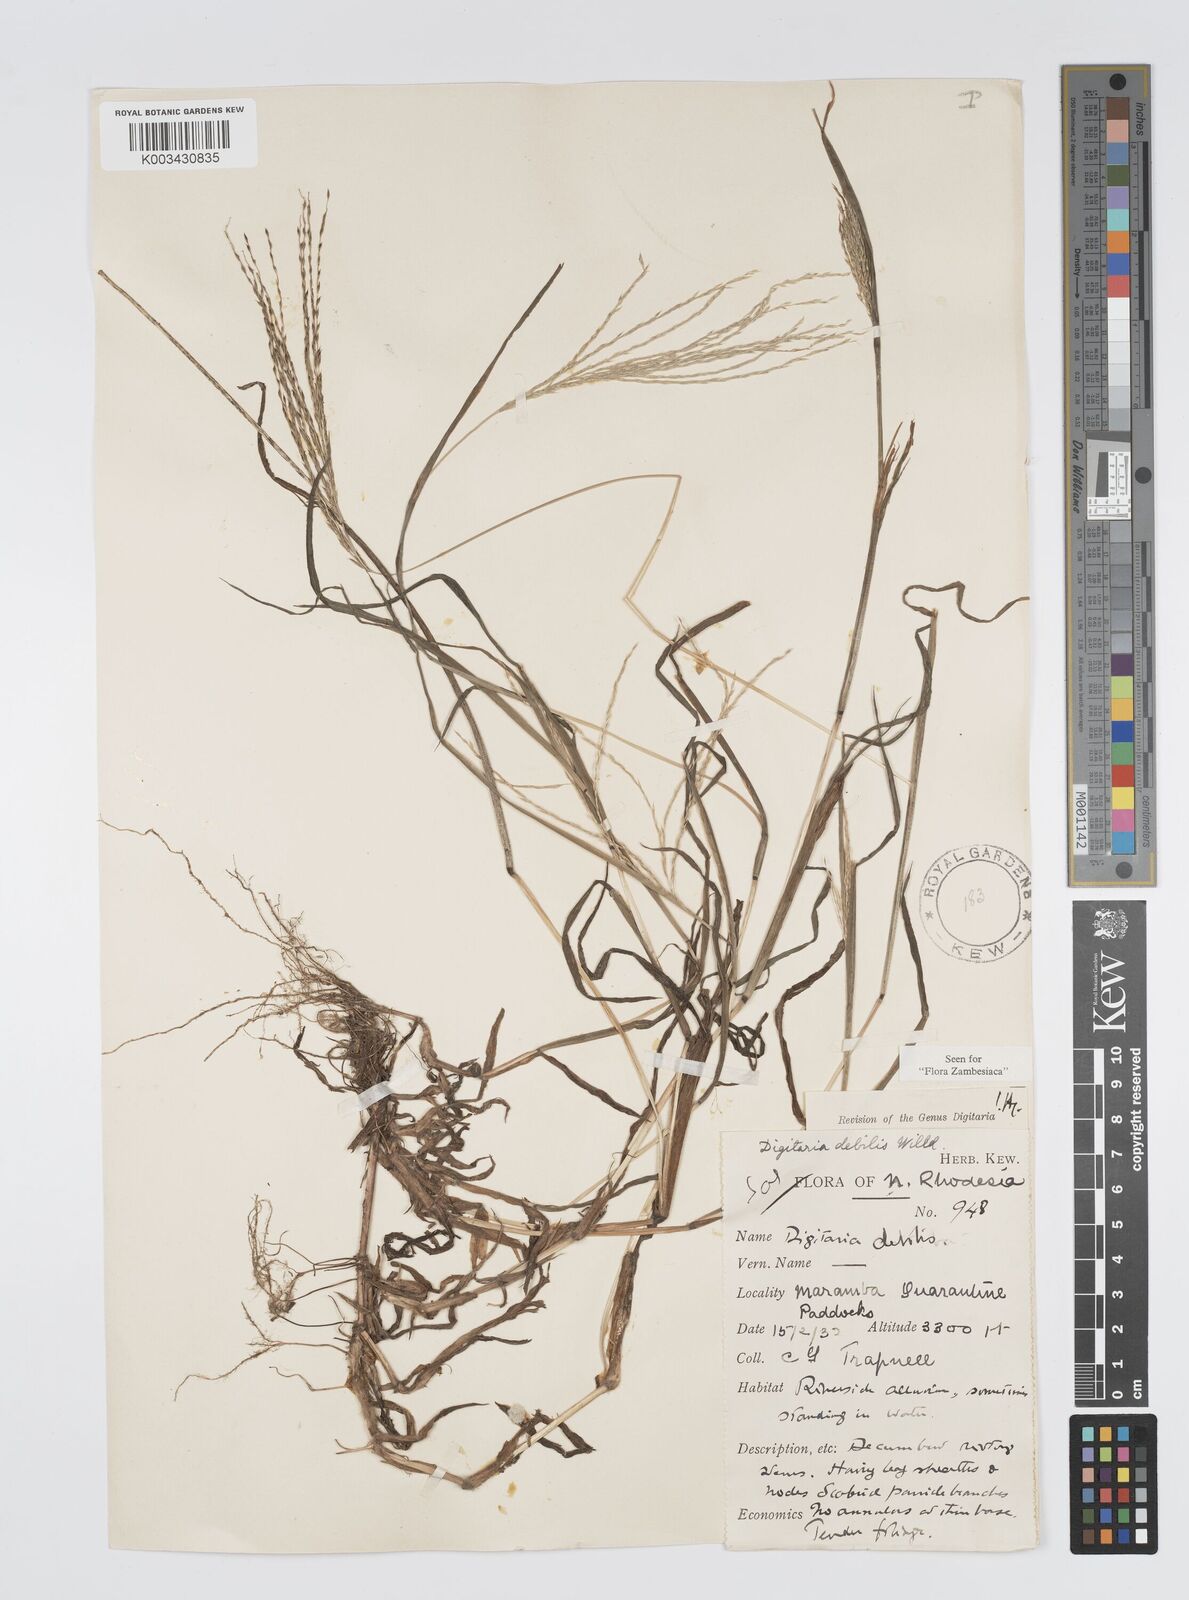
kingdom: Plantae
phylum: Tracheophyta
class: Liliopsida
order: Poales
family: Poaceae
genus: Digitaria
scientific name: Digitaria debilis
